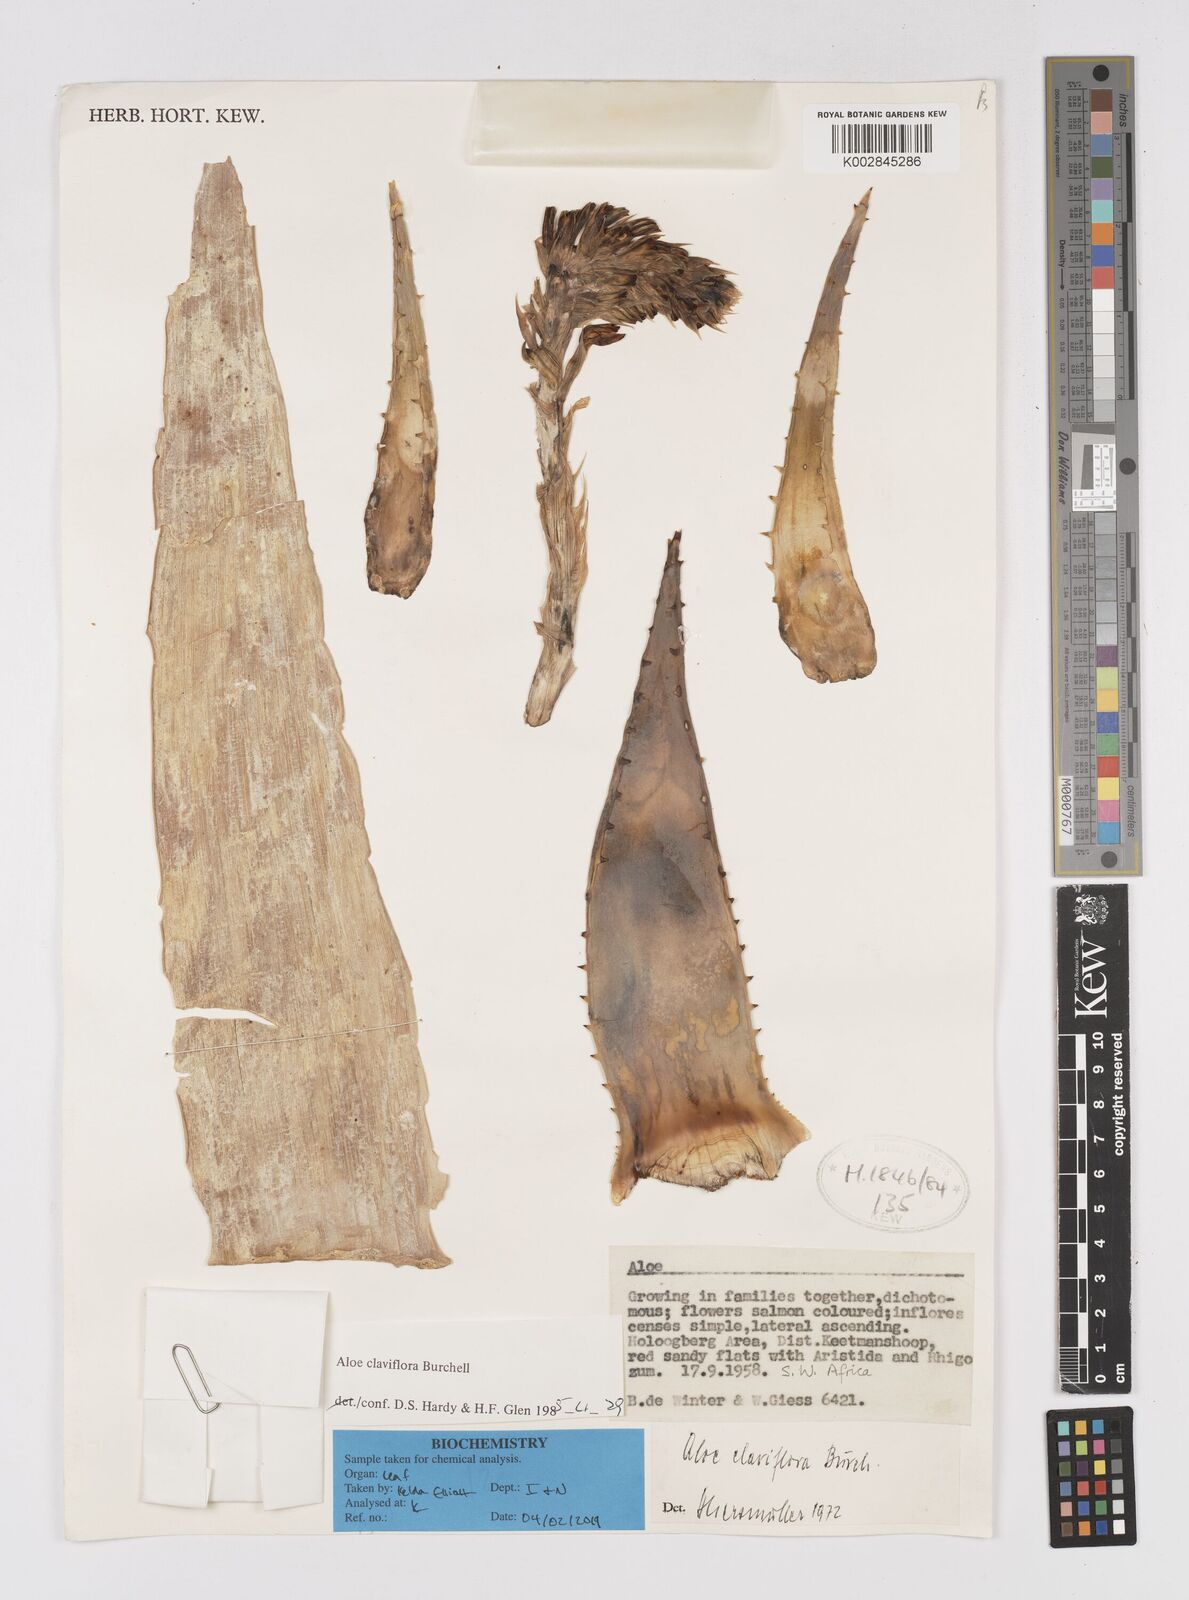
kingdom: Plantae
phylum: Tracheophyta
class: Liliopsida
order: Asparagales
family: Asphodelaceae
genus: Aloe
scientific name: Aloe claviflora
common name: Cannon aloe
